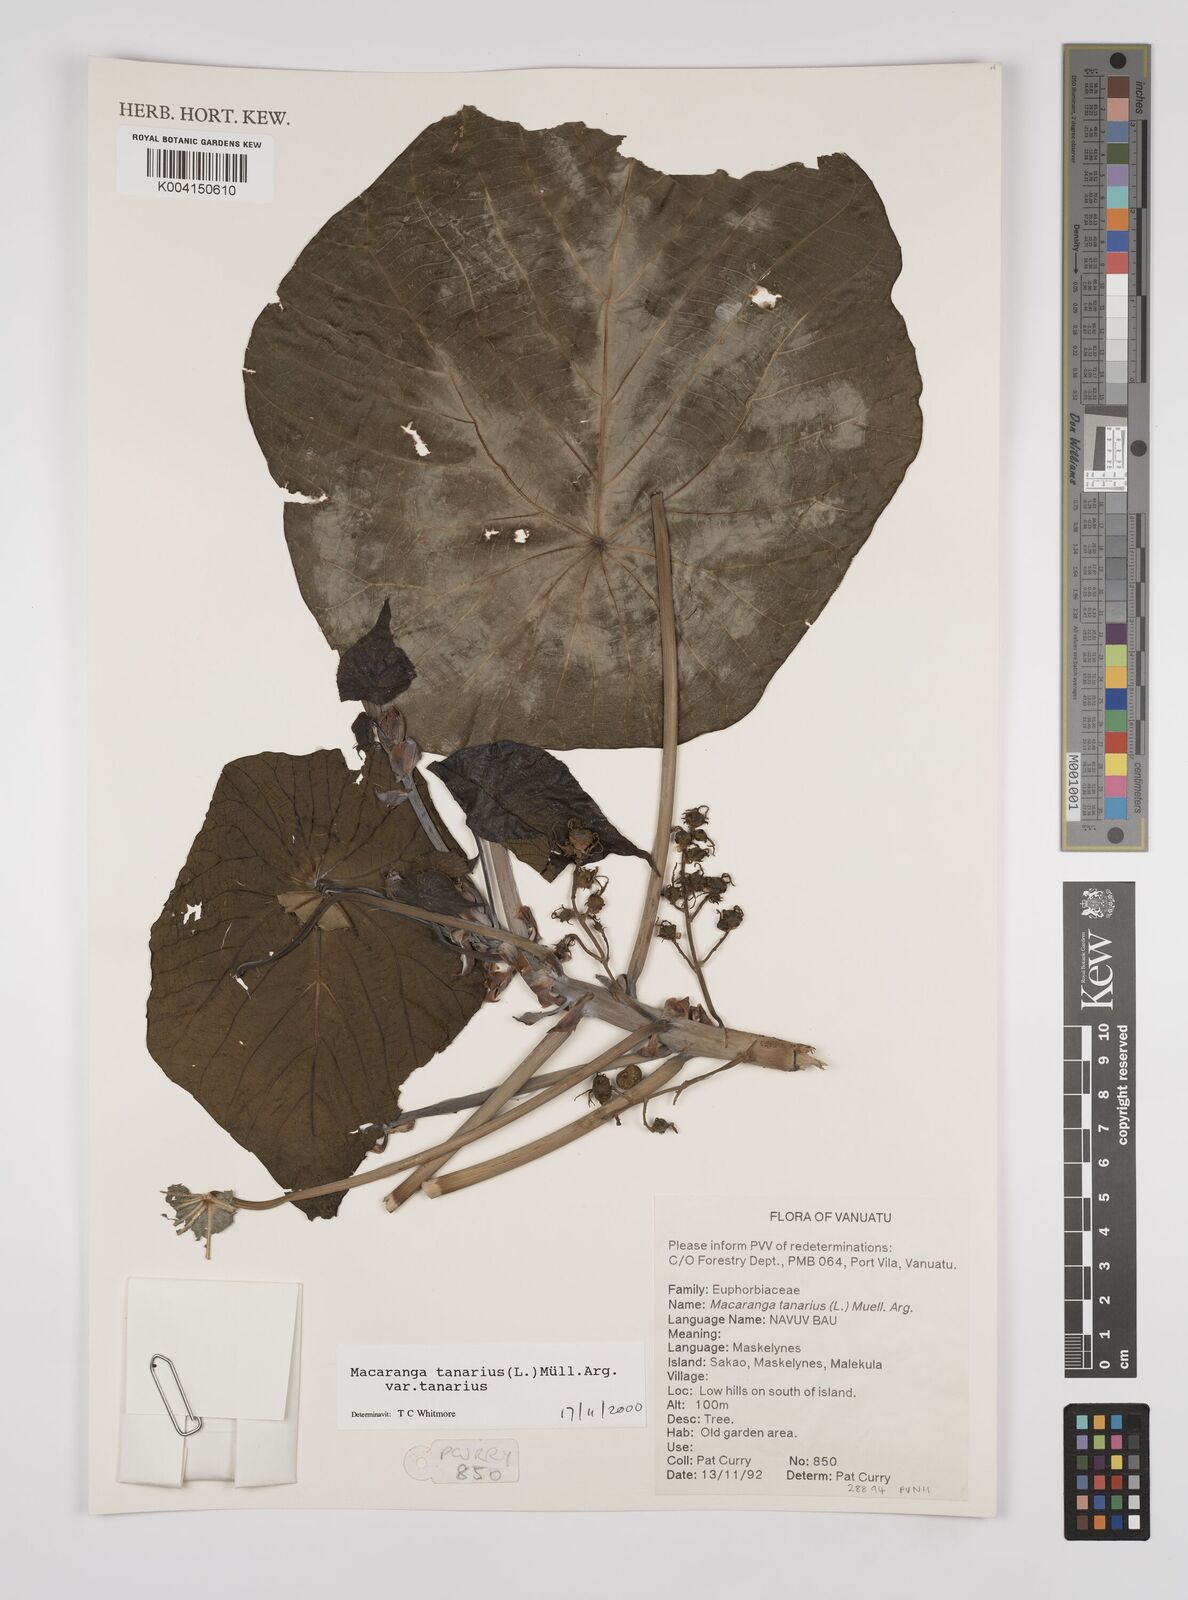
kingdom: Plantae
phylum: Tracheophyta
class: Magnoliopsida
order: Malpighiales
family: Euphorbiaceae
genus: Macaranga
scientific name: Macaranga tanarius
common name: Parasol leaf tree
